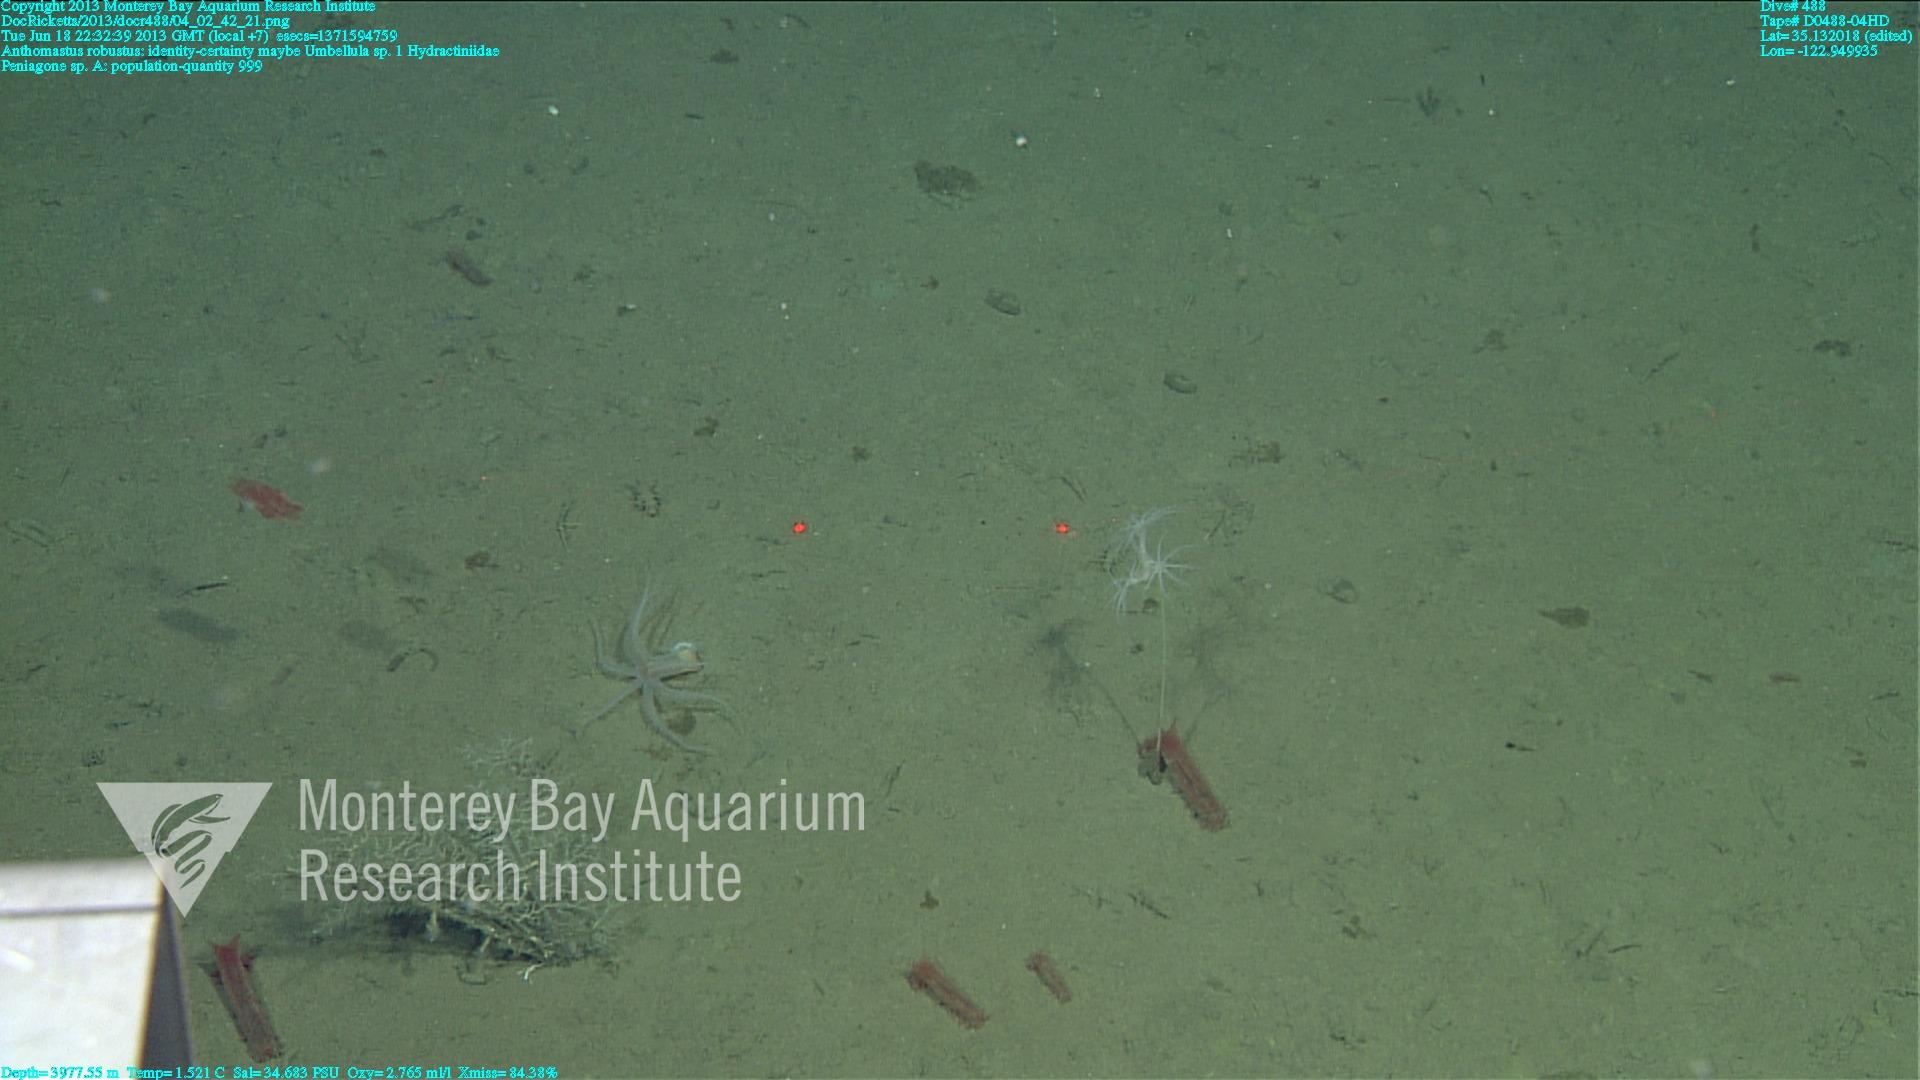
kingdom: Animalia
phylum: Cnidaria
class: Anthozoa
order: Scleralcyonacea
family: Coralliidae
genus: Bathyalcyon
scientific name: Bathyalcyon robustum
